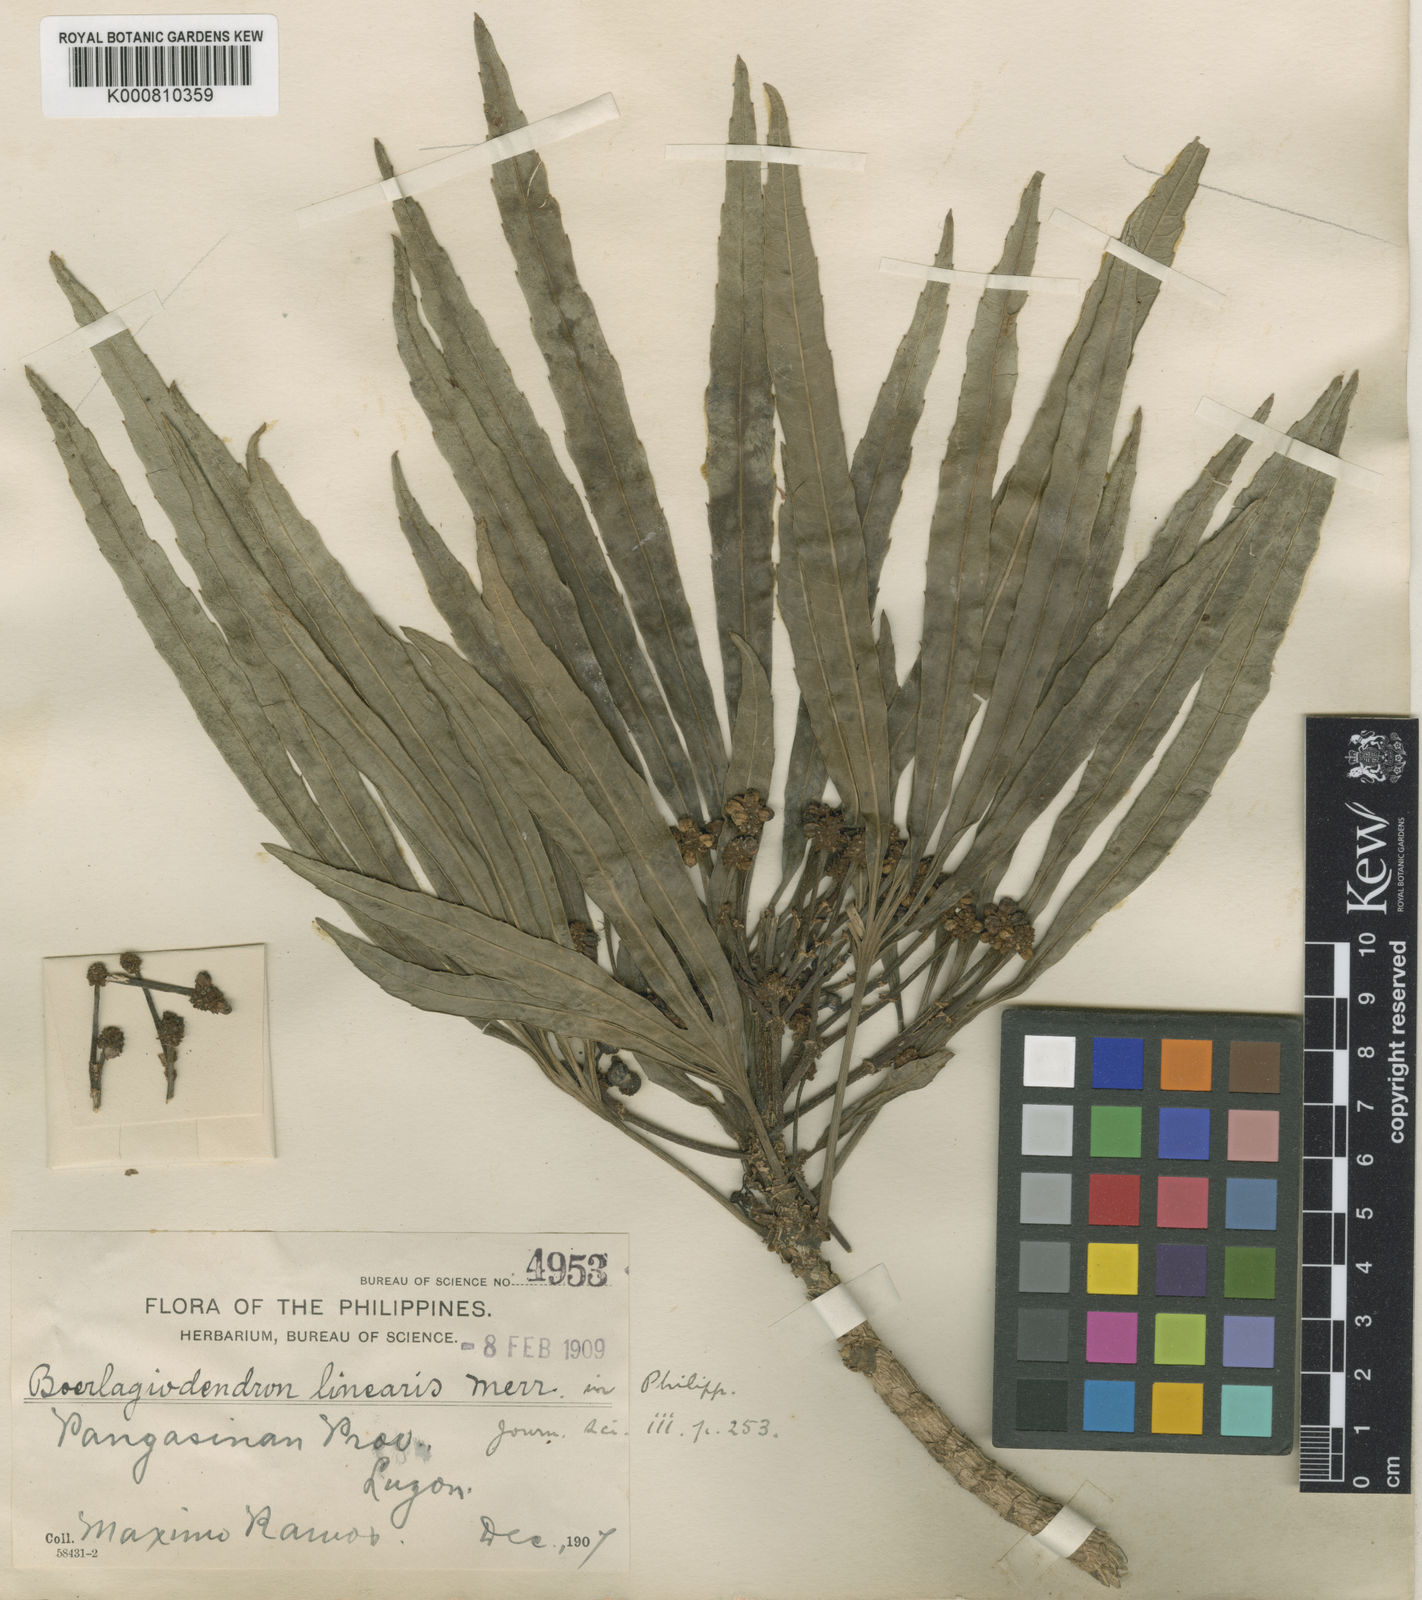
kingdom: Plantae
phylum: Tracheophyta
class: Magnoliopsida
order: Apiales
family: Araliaceae
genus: Osmoxylon
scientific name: Osmoxylon lineare
